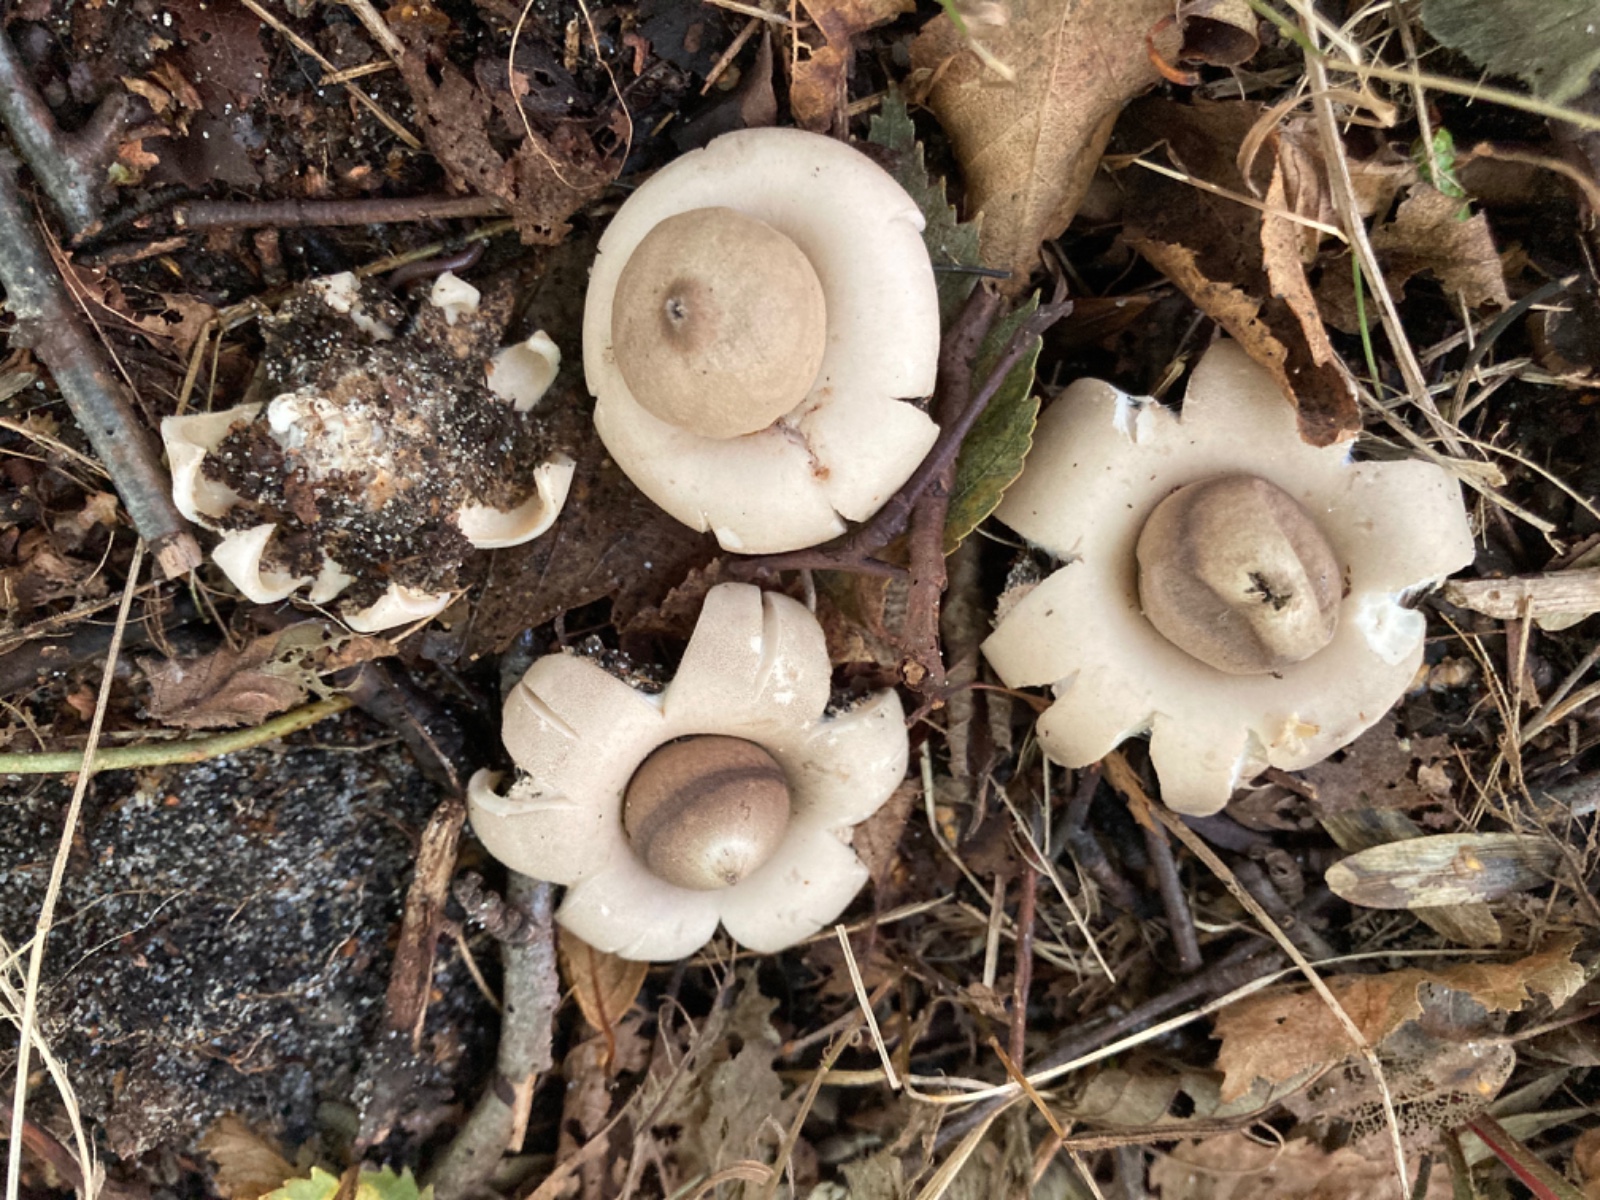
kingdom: Fungi
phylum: Basidiomycota
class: Agaricomycetes
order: Geastrales
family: Geastraceae
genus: Geastrum
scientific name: Geastrum fimbriatum
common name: frynset stjernebold
